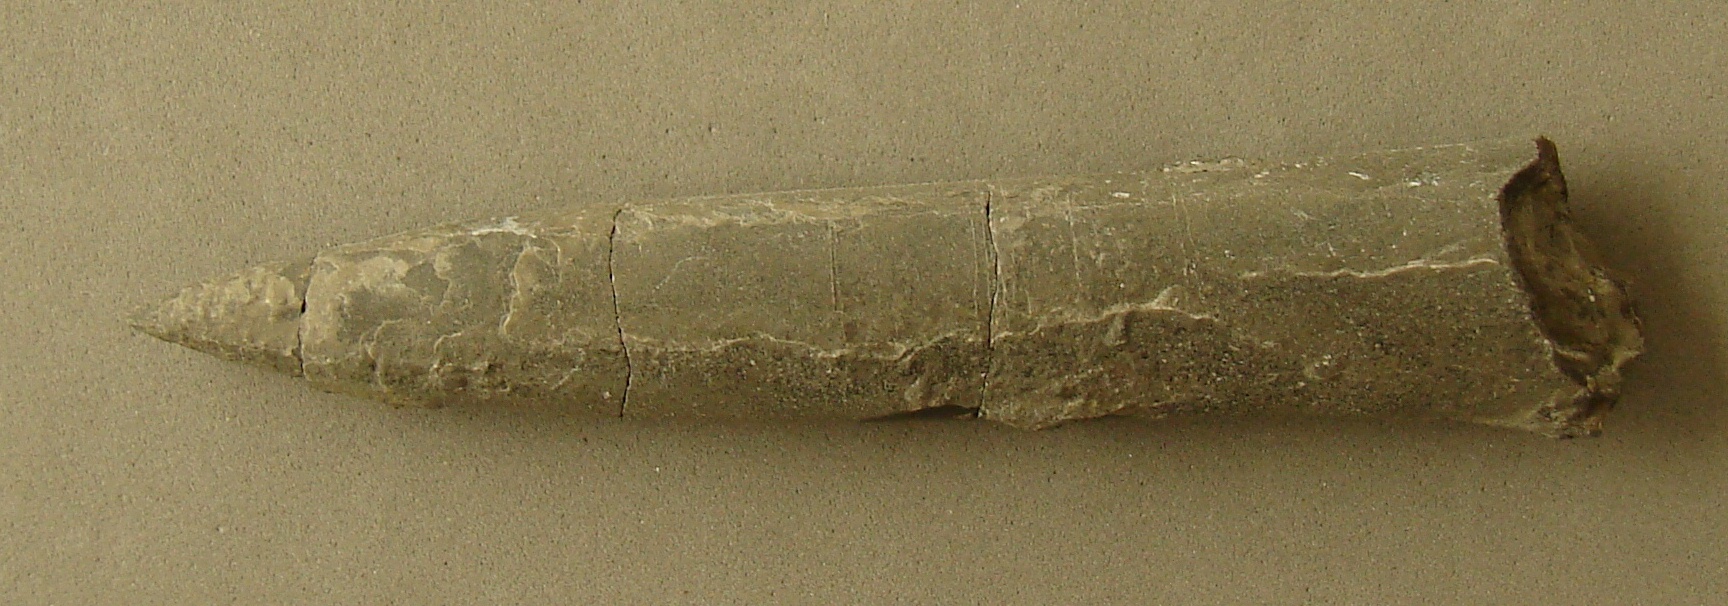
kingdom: Animalia
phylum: Mollusca
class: Cephalopoda
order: Belemnitida
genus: Simpsonibelus
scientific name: Simpsonibelus
